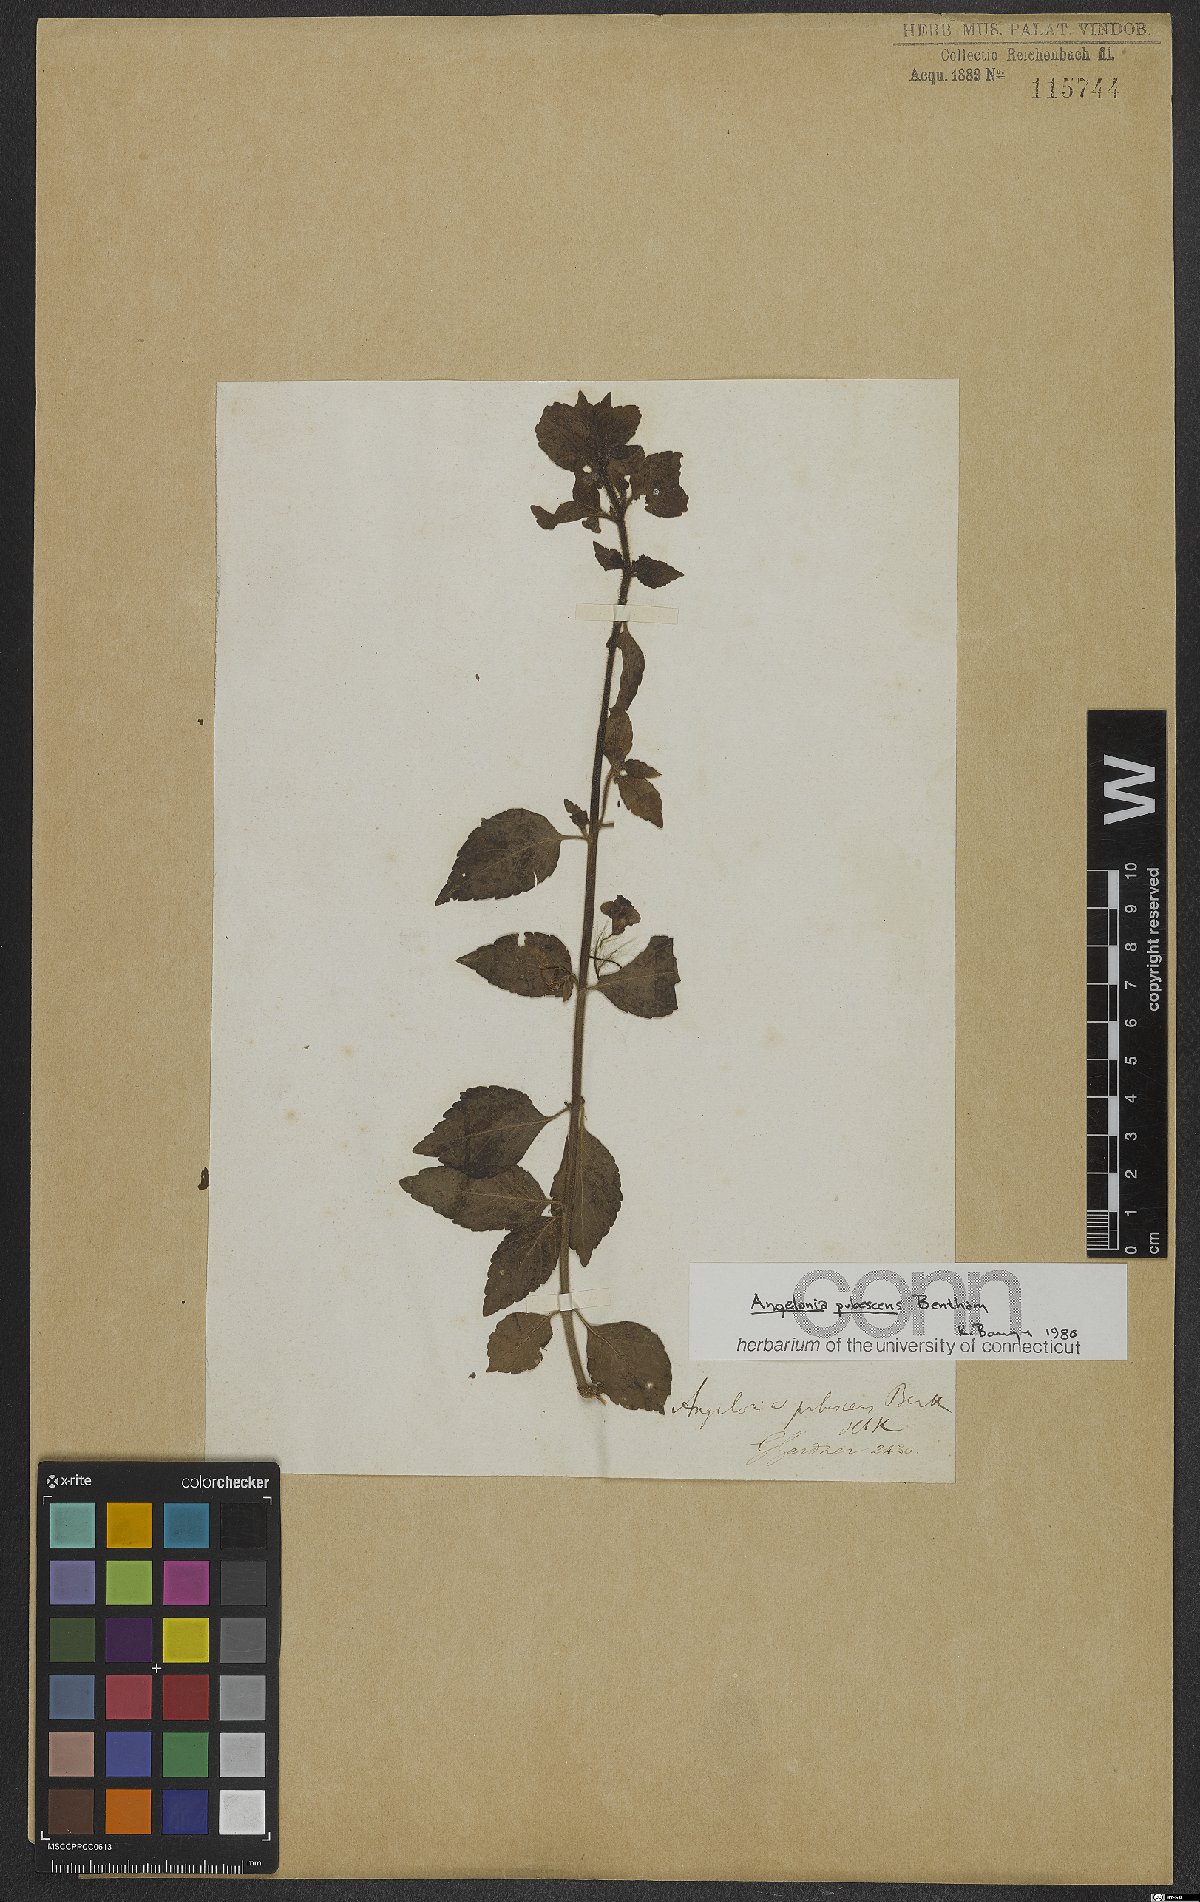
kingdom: Plantae
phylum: Tracheophyta
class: Magnoliopsida
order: Lamiales
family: Plantaginaceae
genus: Angelonia
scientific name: Angelonia pubescens
